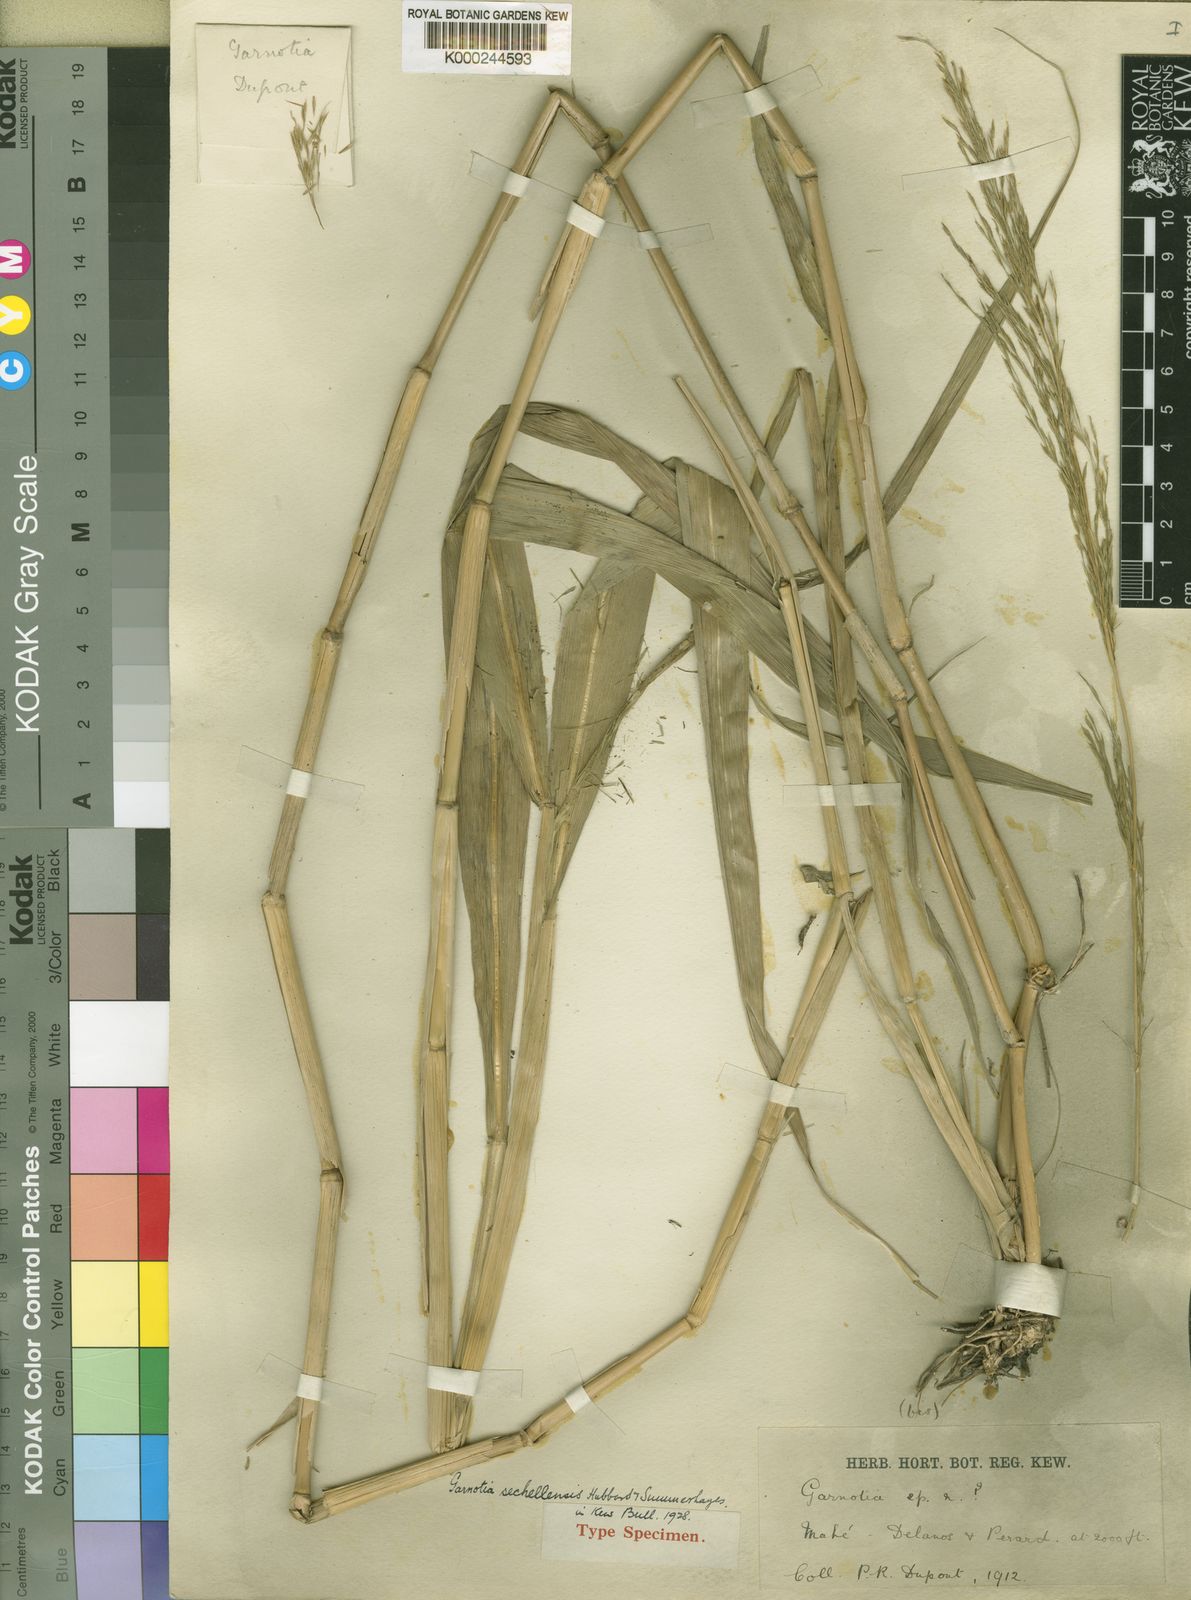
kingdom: Plantae
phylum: Tracheophyta
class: Liliopsida
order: Poales
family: Poaceae
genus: Garnotia
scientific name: Garnotia sechellensis
